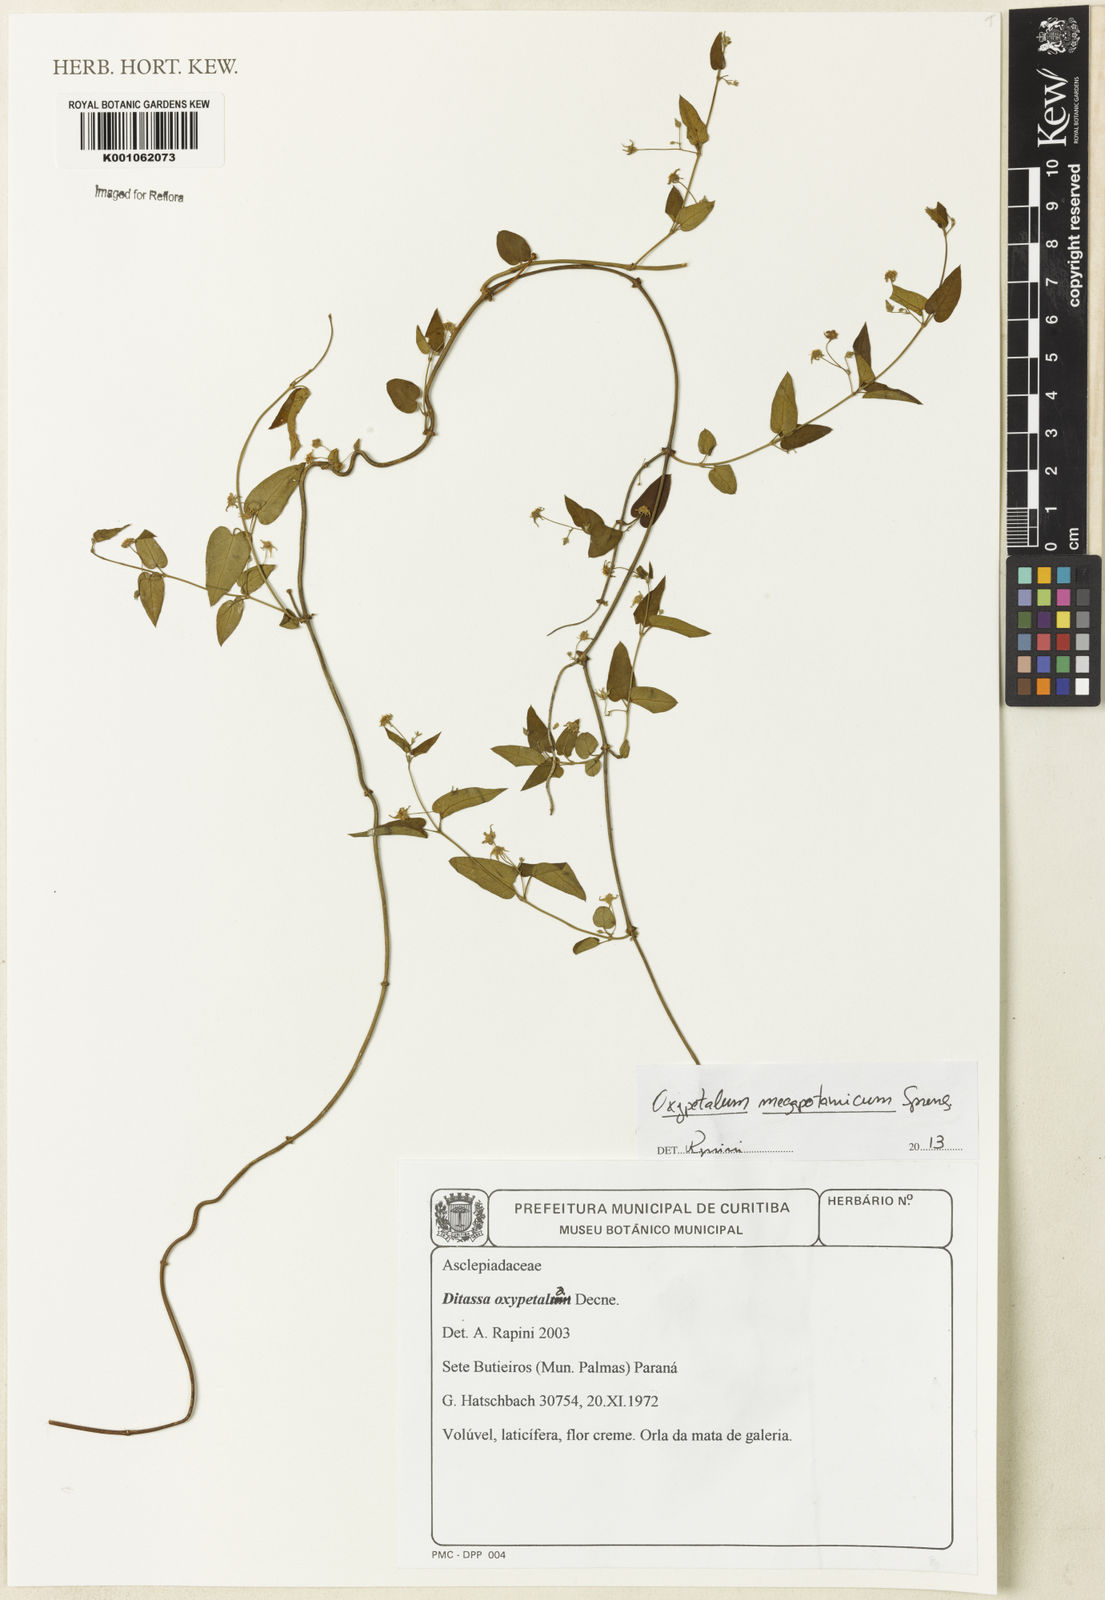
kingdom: Plantae
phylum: Tracheophyta
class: Magnoliopsida
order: Gentianales
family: Apocynaceae
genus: Oxypetalum
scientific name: Oxypetalum megapotamicum
